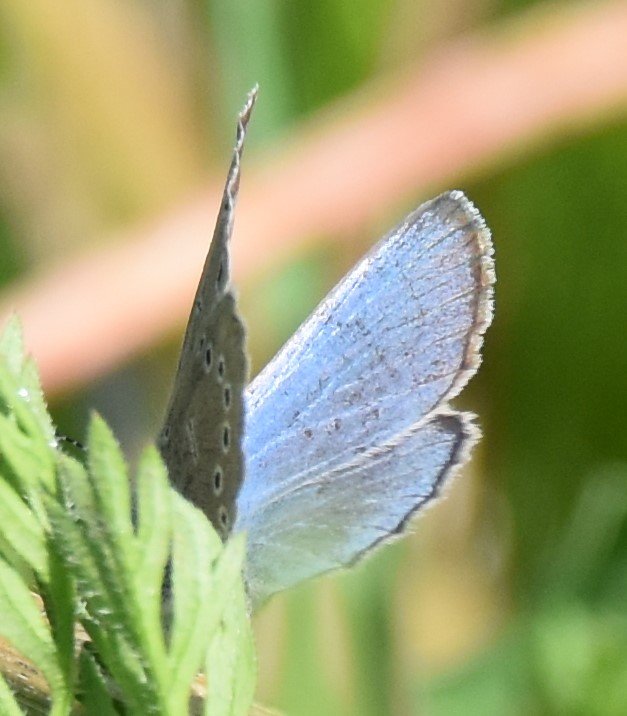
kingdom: Animalia
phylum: Arthropoda
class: Insecta
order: Lepidoptera
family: Lycaenidae
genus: Glaucopsyche
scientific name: Glaucopsyche lygdamus
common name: Silvery Blue
